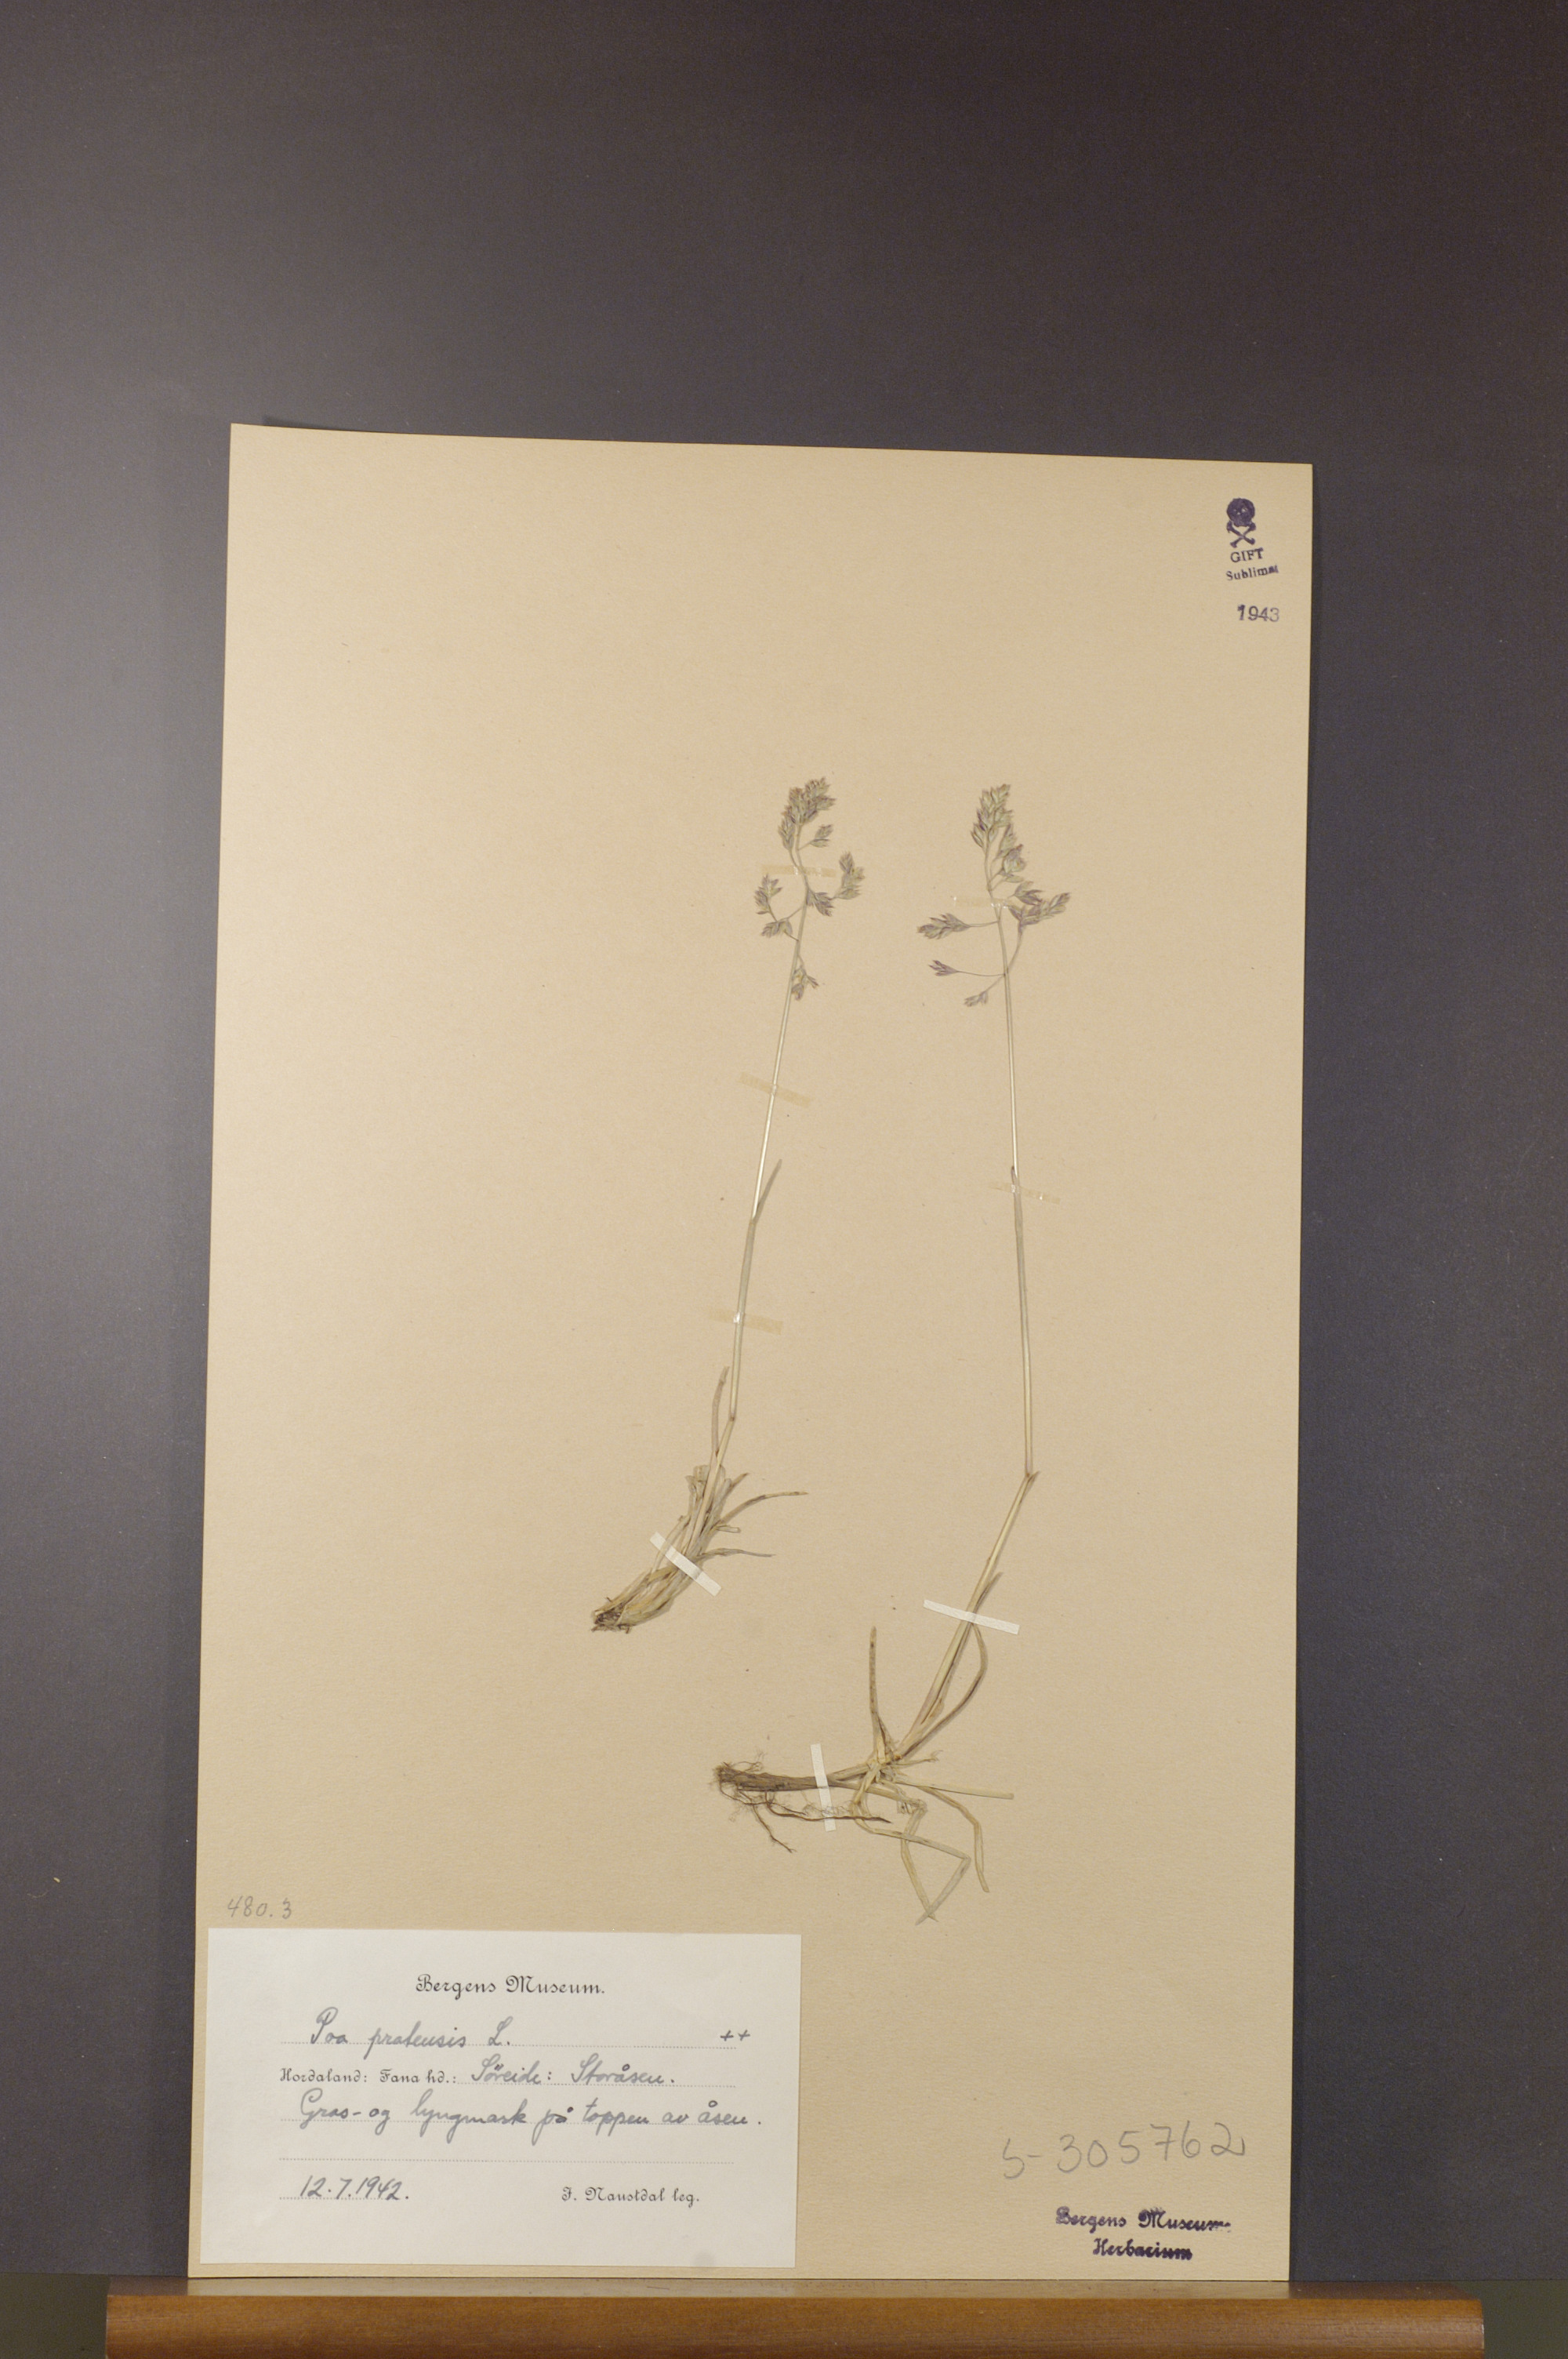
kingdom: Plantae
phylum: Tracheophyta
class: Liliopsida
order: Poales
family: Poaceae
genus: Poa
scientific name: Poa pratensis
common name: Kentucky bluegrass
